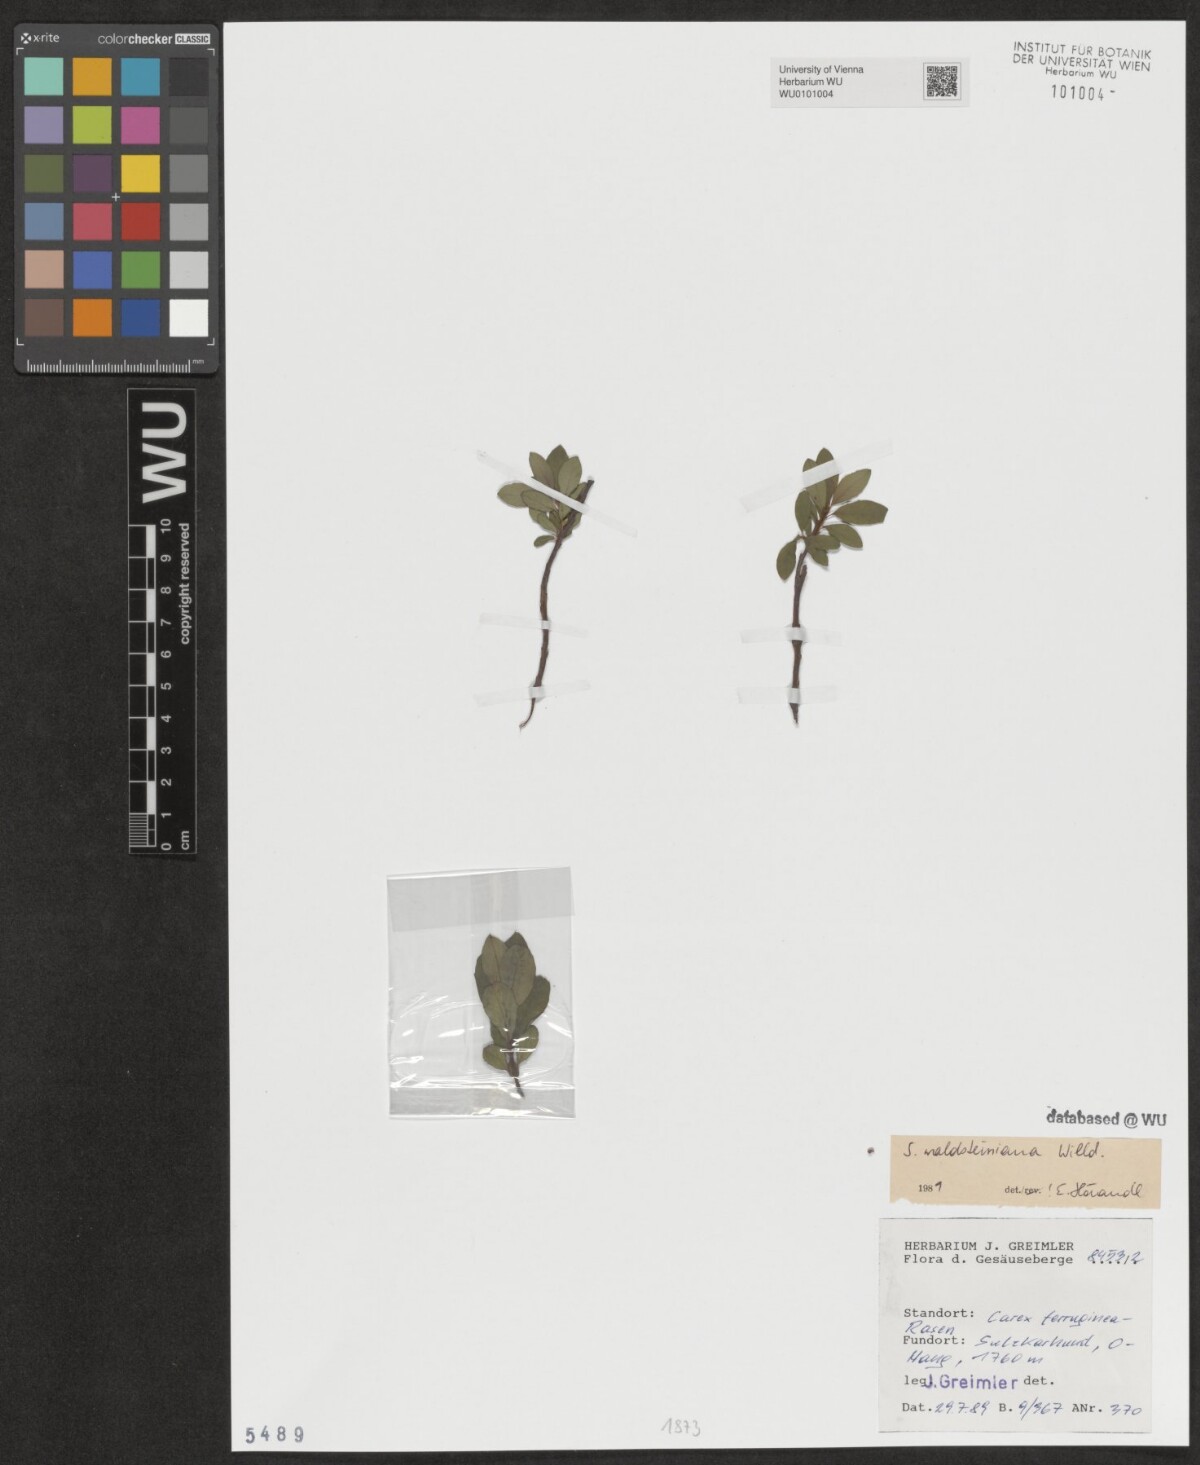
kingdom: Plantae
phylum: Tracheophyta
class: Magnoliopsida
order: Malpighiales
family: Salicaceae
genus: Salix
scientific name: Salix waldsteiniana
